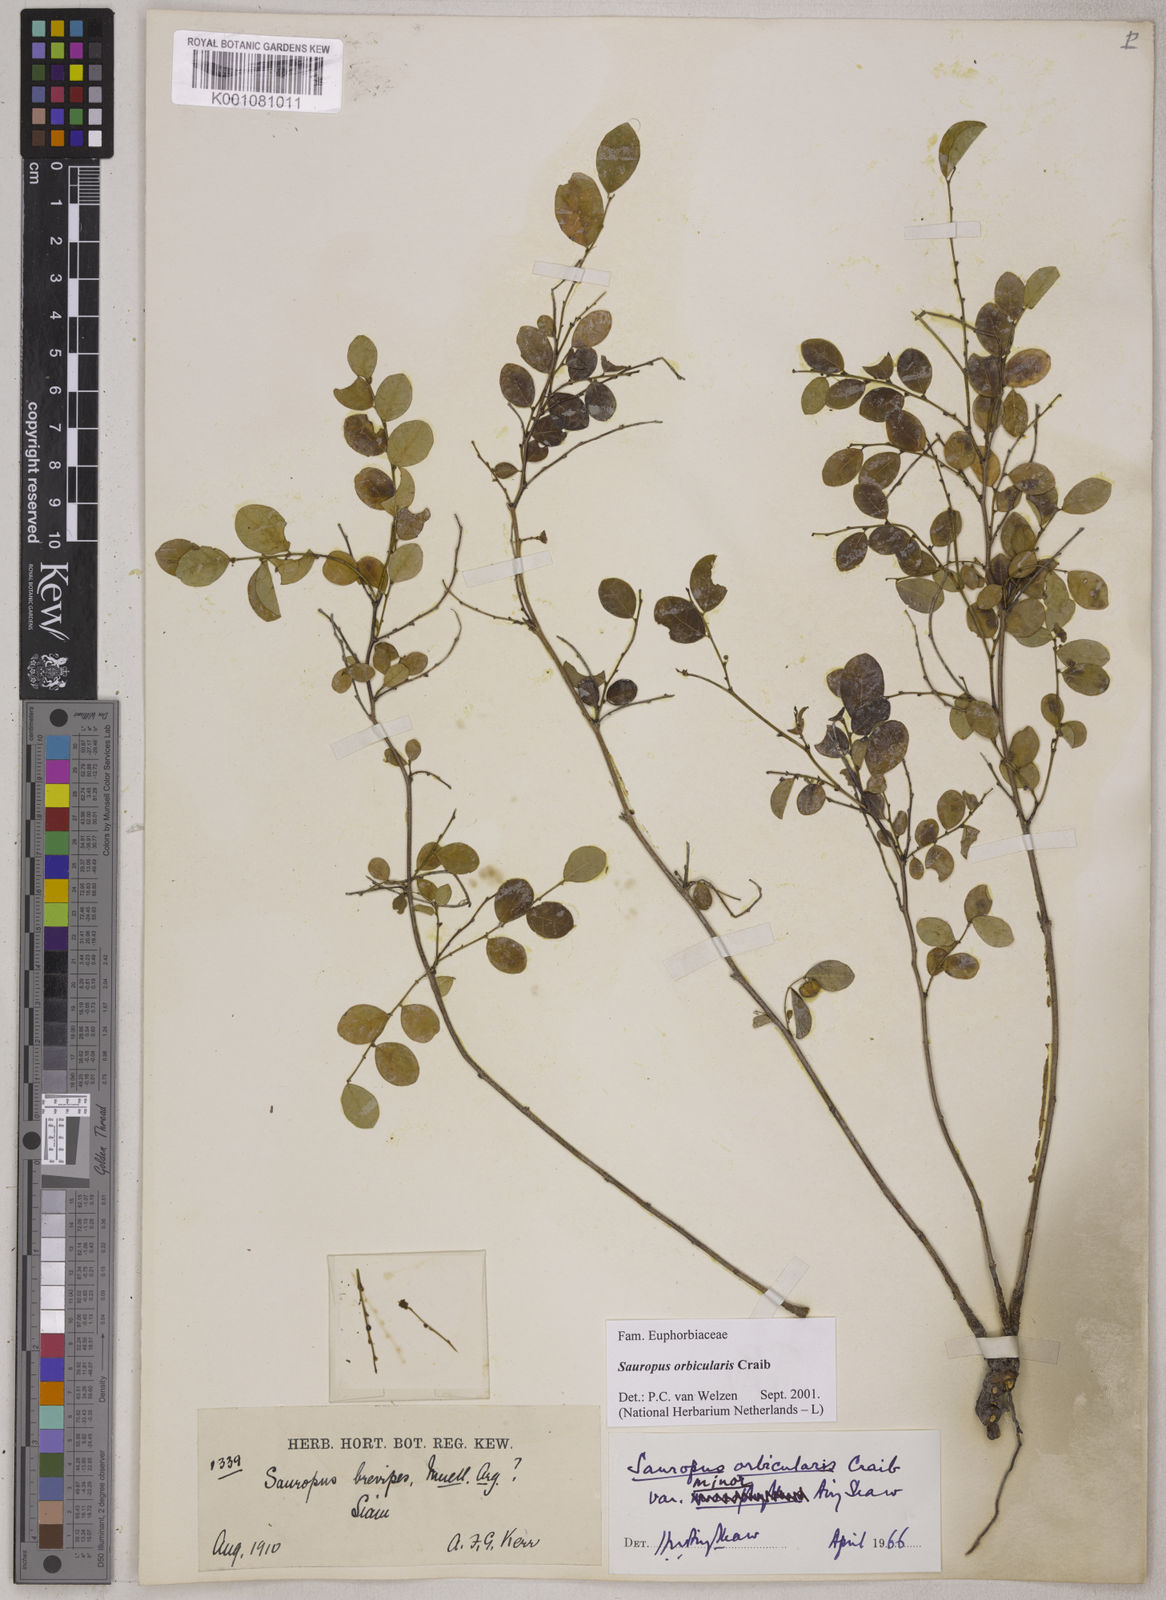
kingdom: Plantae
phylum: Tracheophyta
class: Magnoliopsida
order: Malpighiales
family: Phyllanthaceae
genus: Breynia
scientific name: Breynia orbicularis
